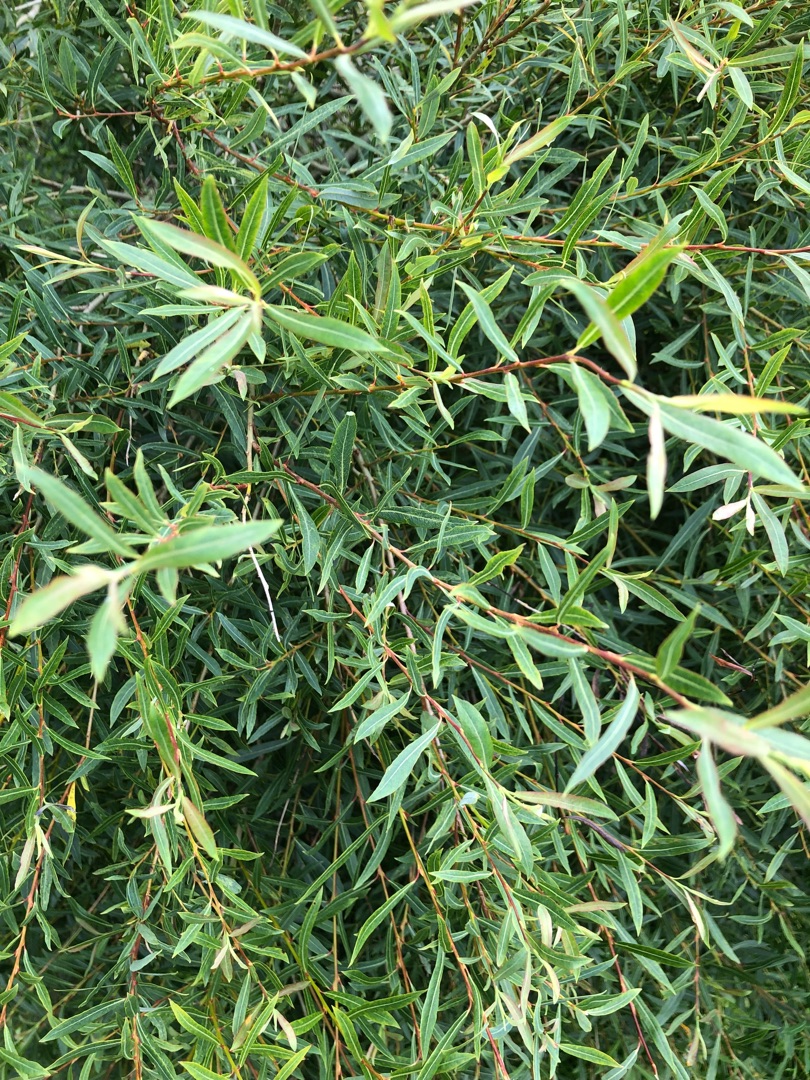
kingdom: Plantae
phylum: Tracheophyta
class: Magnoliopsida
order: Malpighiales
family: Salicaceae
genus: Salix
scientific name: Salix purpurea
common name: Purpur-pil
